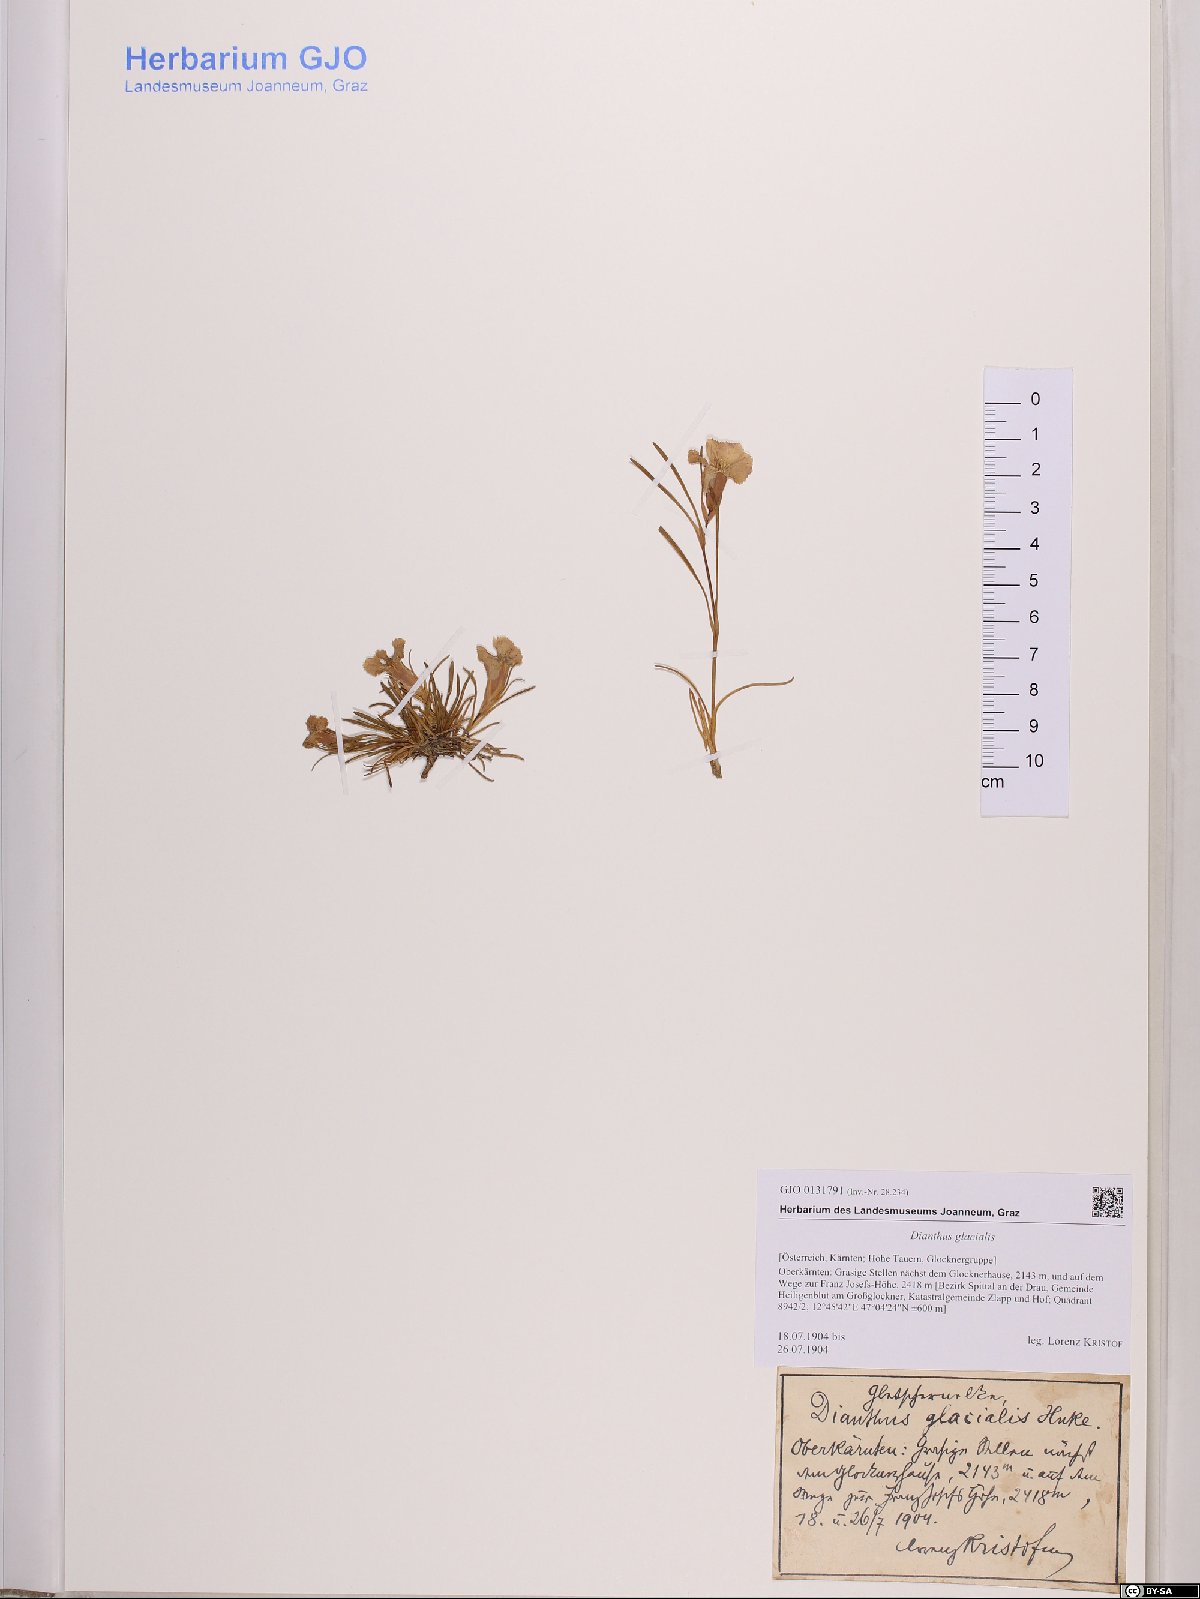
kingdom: Plantae
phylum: Tracheophyta
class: Magnoliopsida
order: Caryophyllales
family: Caryophyllaceae
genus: Dianthus
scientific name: Dianthus glacialis
